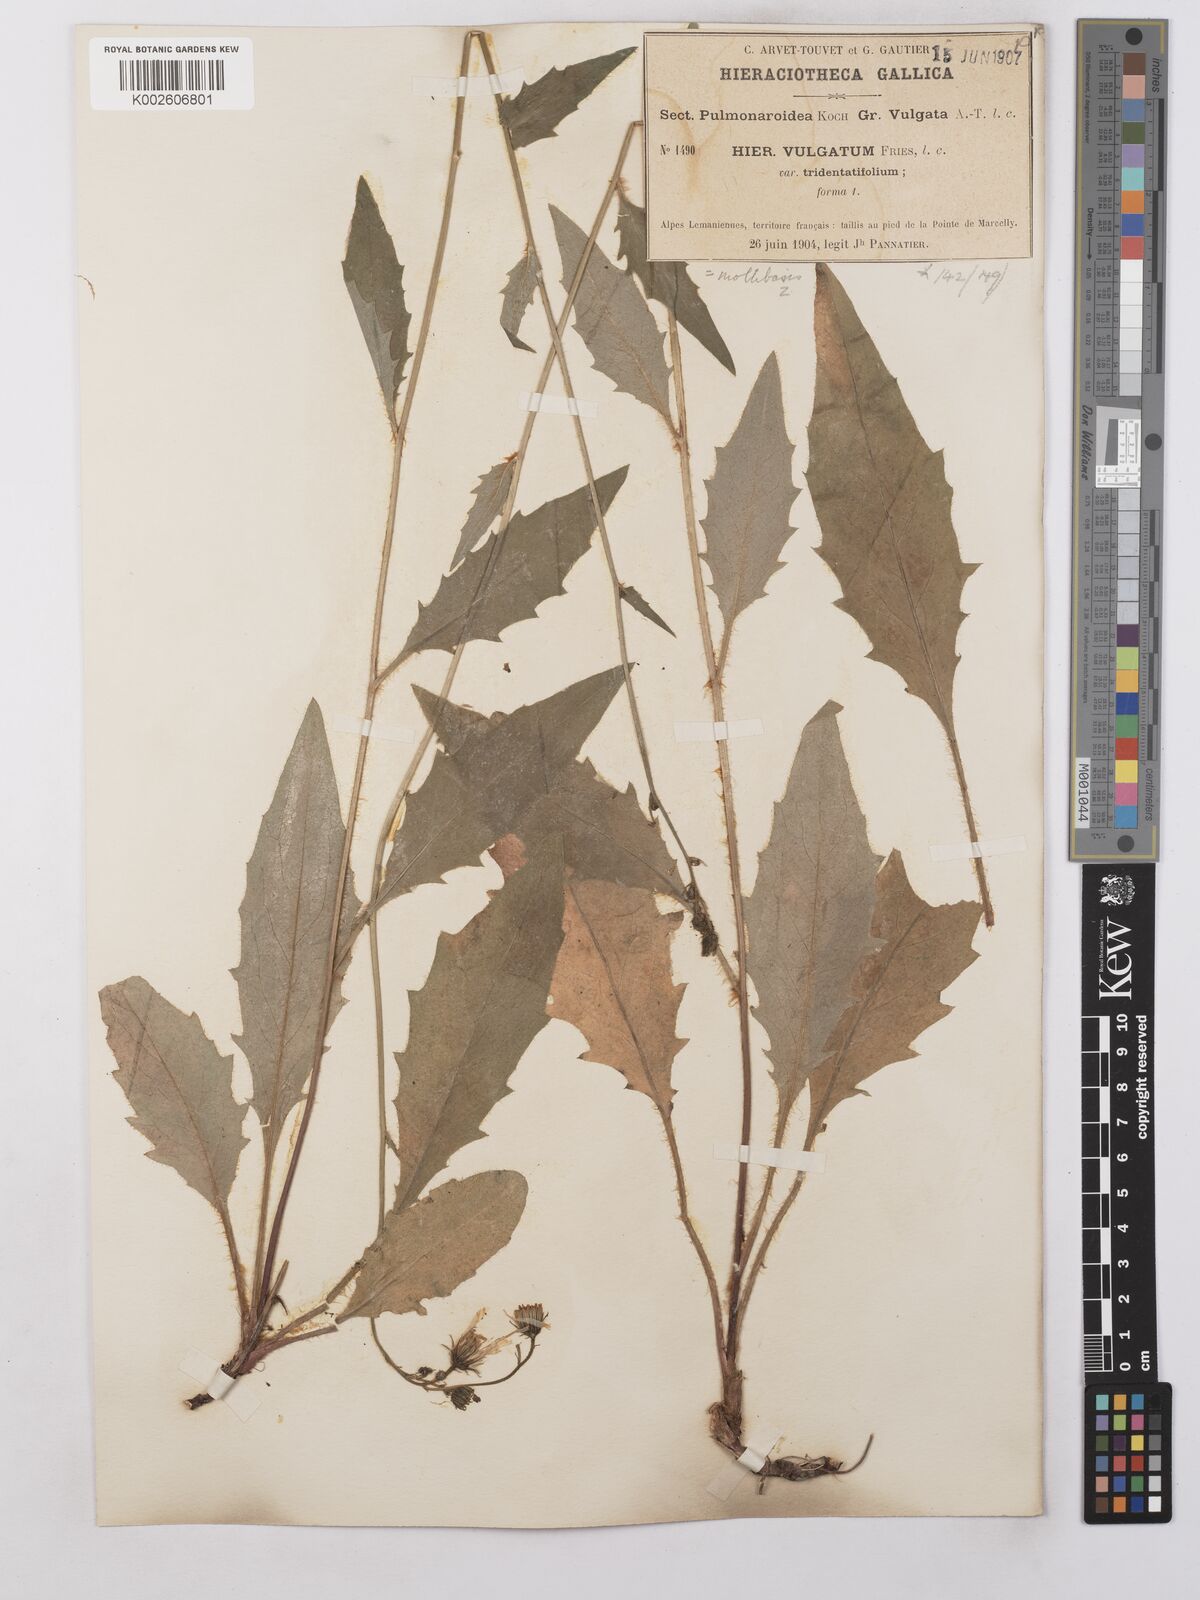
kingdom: Plantae
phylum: Tracheophyta
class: Magnoliopsida
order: Asterales
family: Asteraceae
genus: Hieracium
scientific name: Hieracium lachenalii
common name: Common hawkweed
